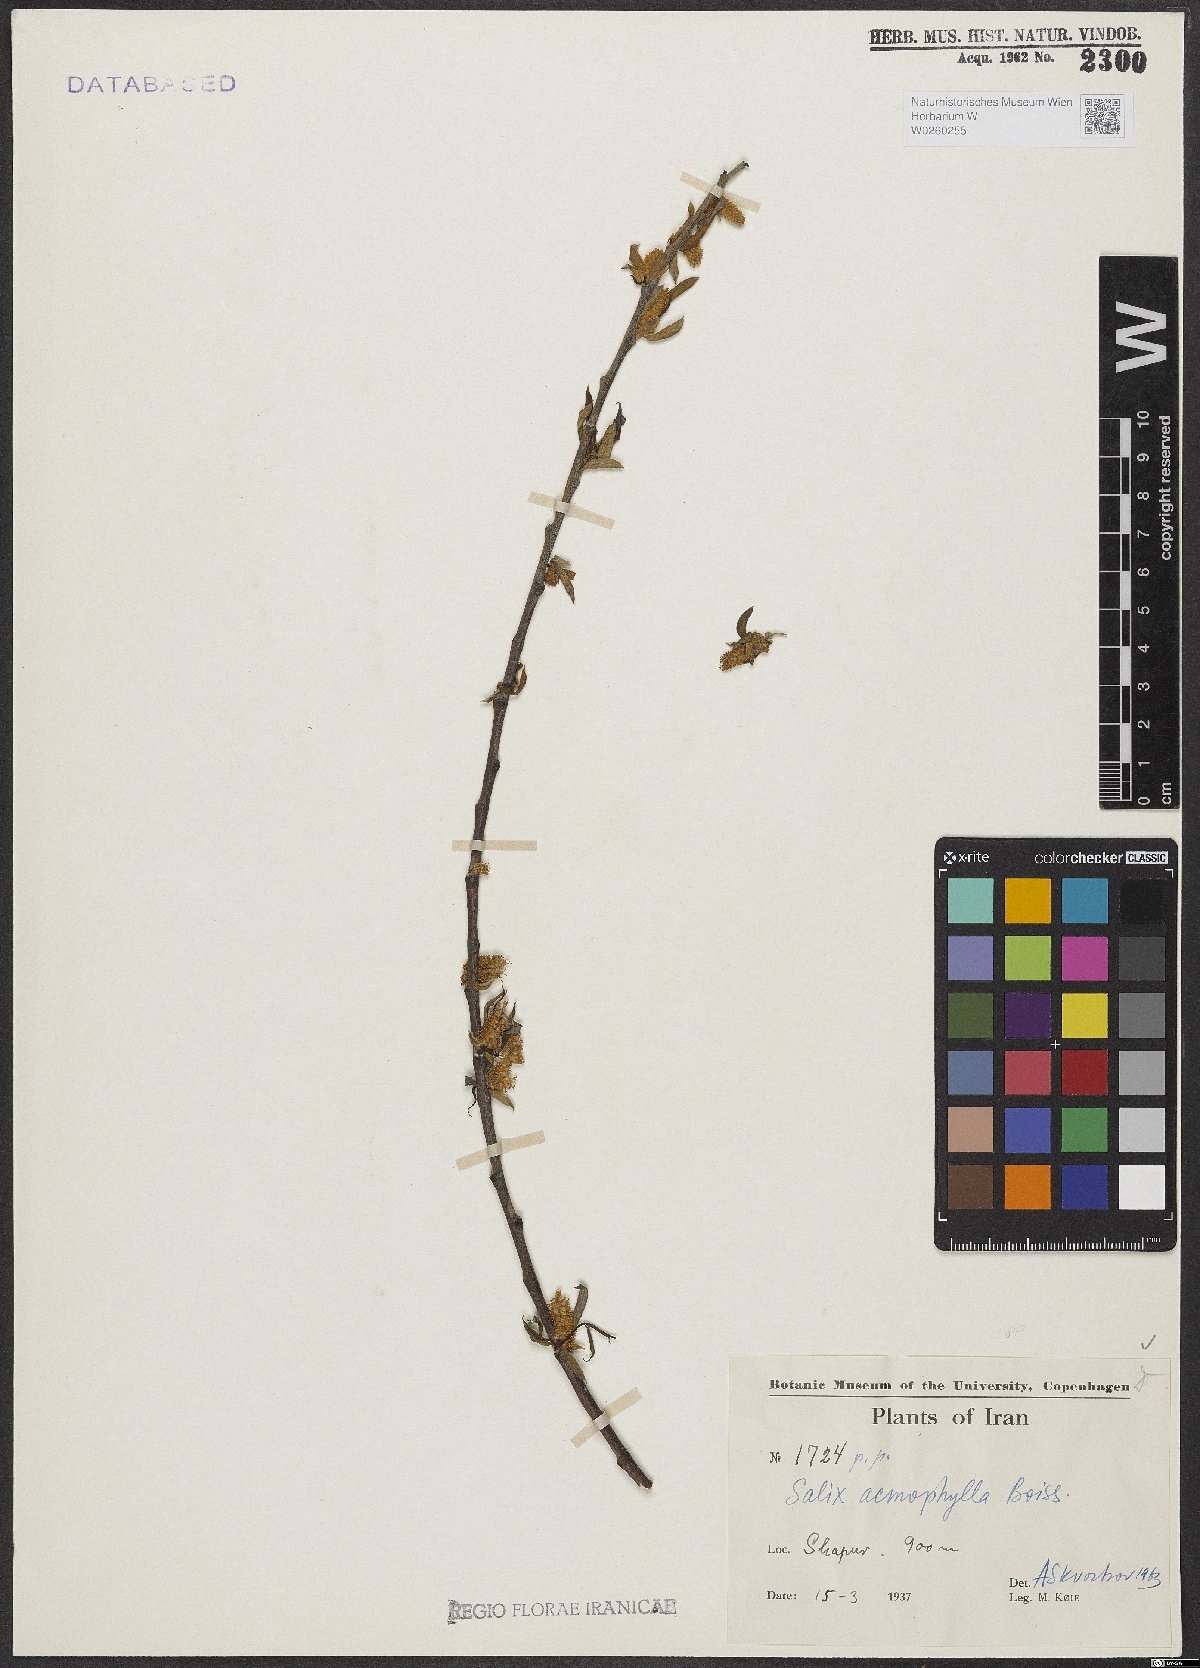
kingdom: Plantae
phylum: Tracheophyta
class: Magnoliopsida
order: Malpighiales
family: Salicaceae
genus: Salix
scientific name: Salix acmophylla
